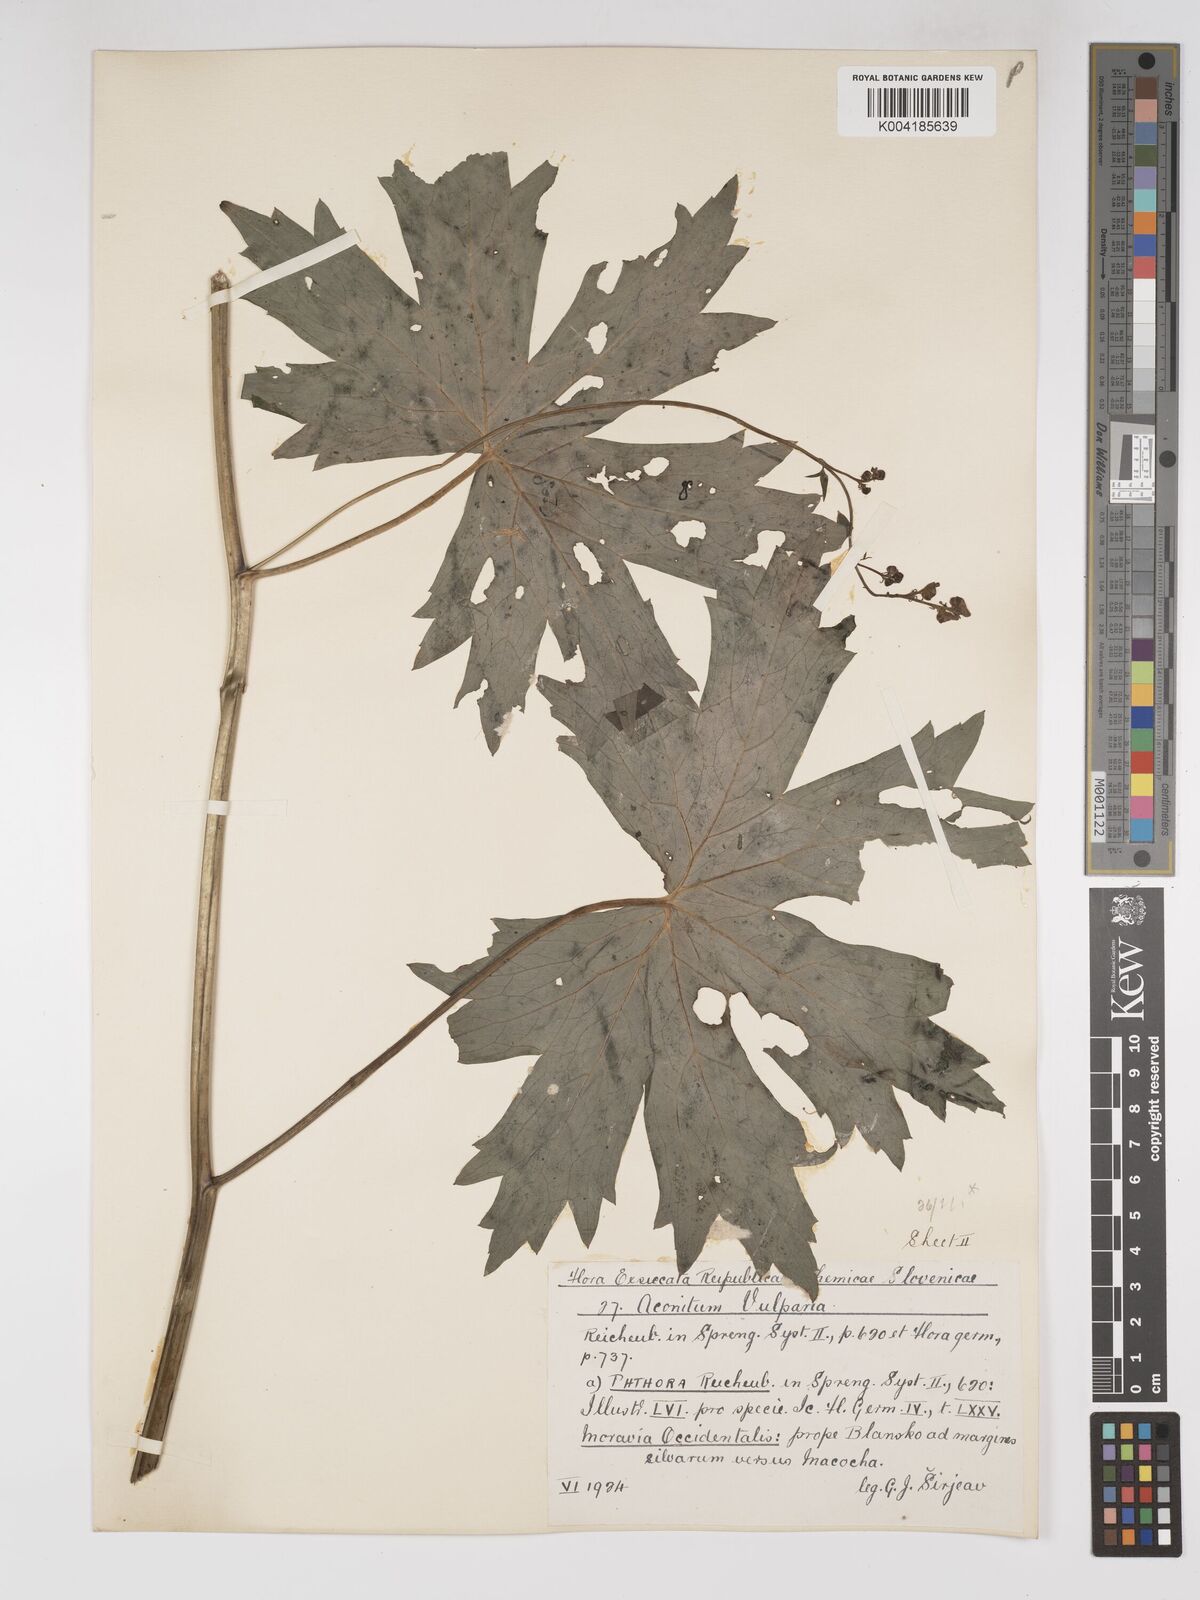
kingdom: Plantae
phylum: Tracheophyta
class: Magnoliopsida
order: Ranunculales
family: Ranunculaceae
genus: Aconitum
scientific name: Aconitum lycoctonum
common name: Wolf's-bane
